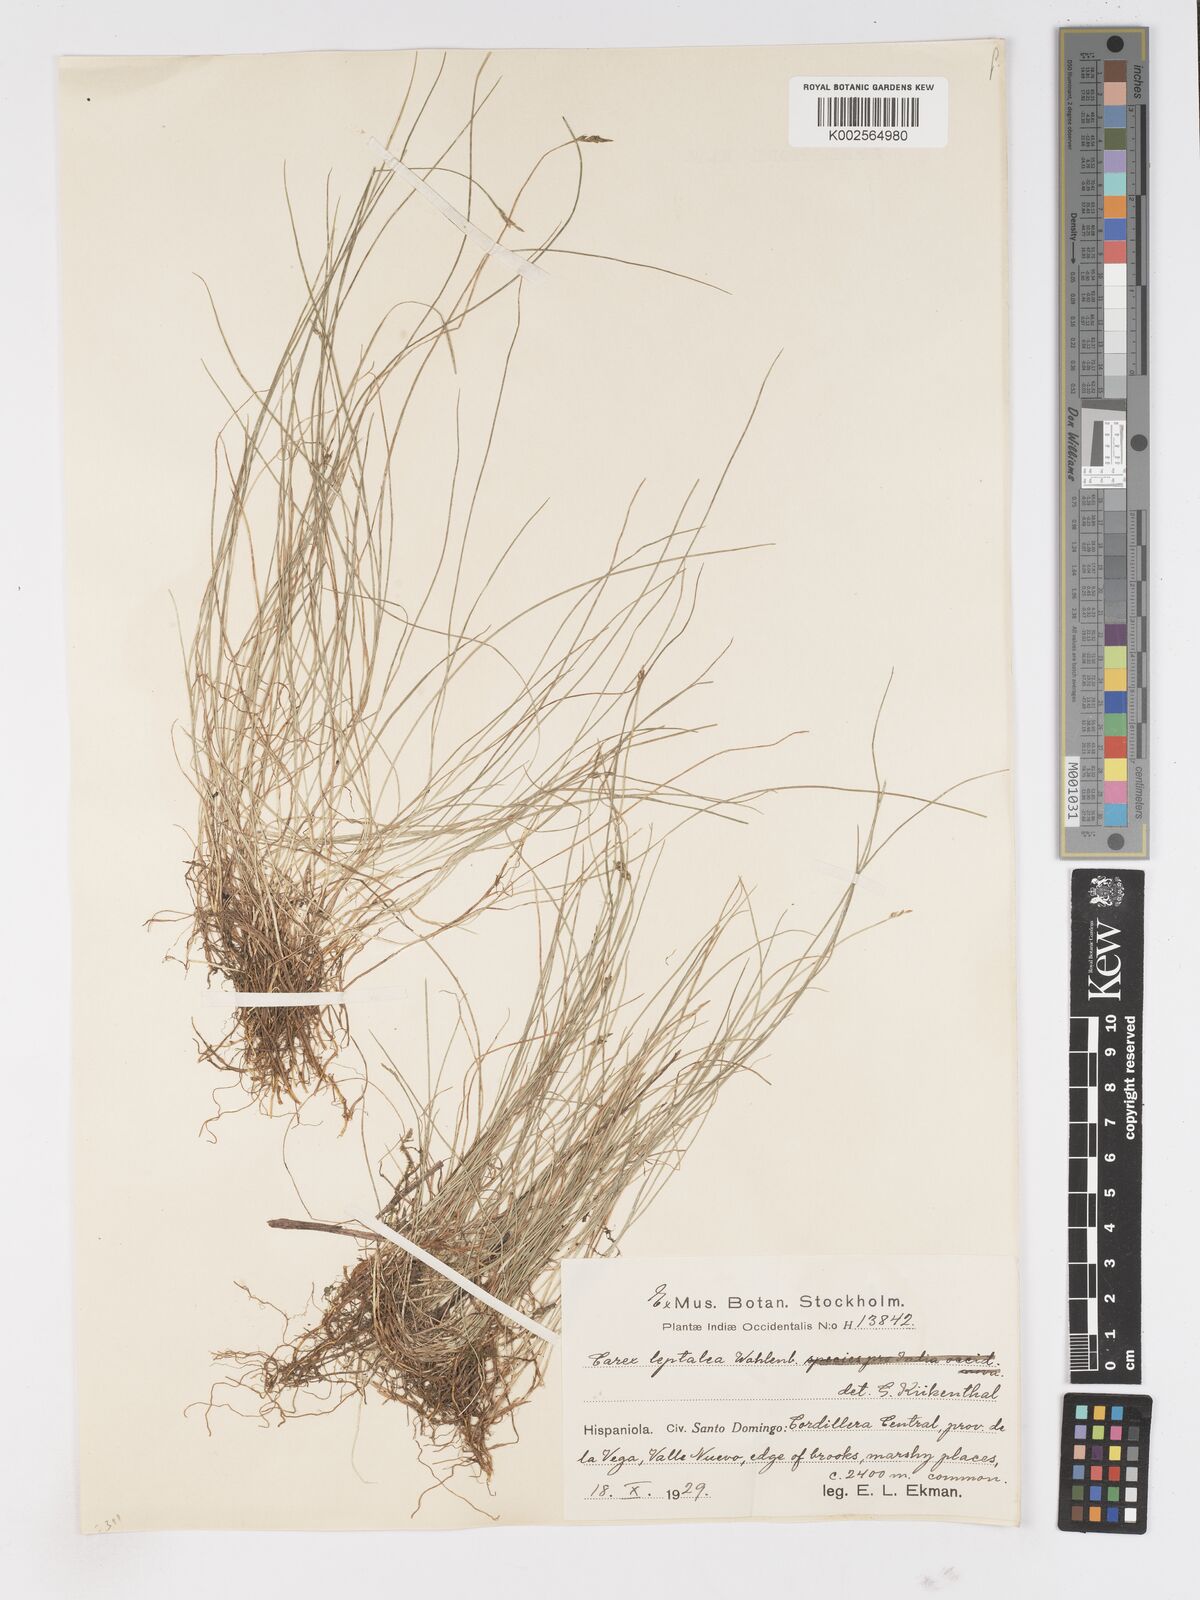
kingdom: Plantae
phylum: Tracheophyta
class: Liliopsida
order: Poales
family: Cyperaceae
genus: Carex
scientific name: Carex leptalea
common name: Bristly-stalked sedge
